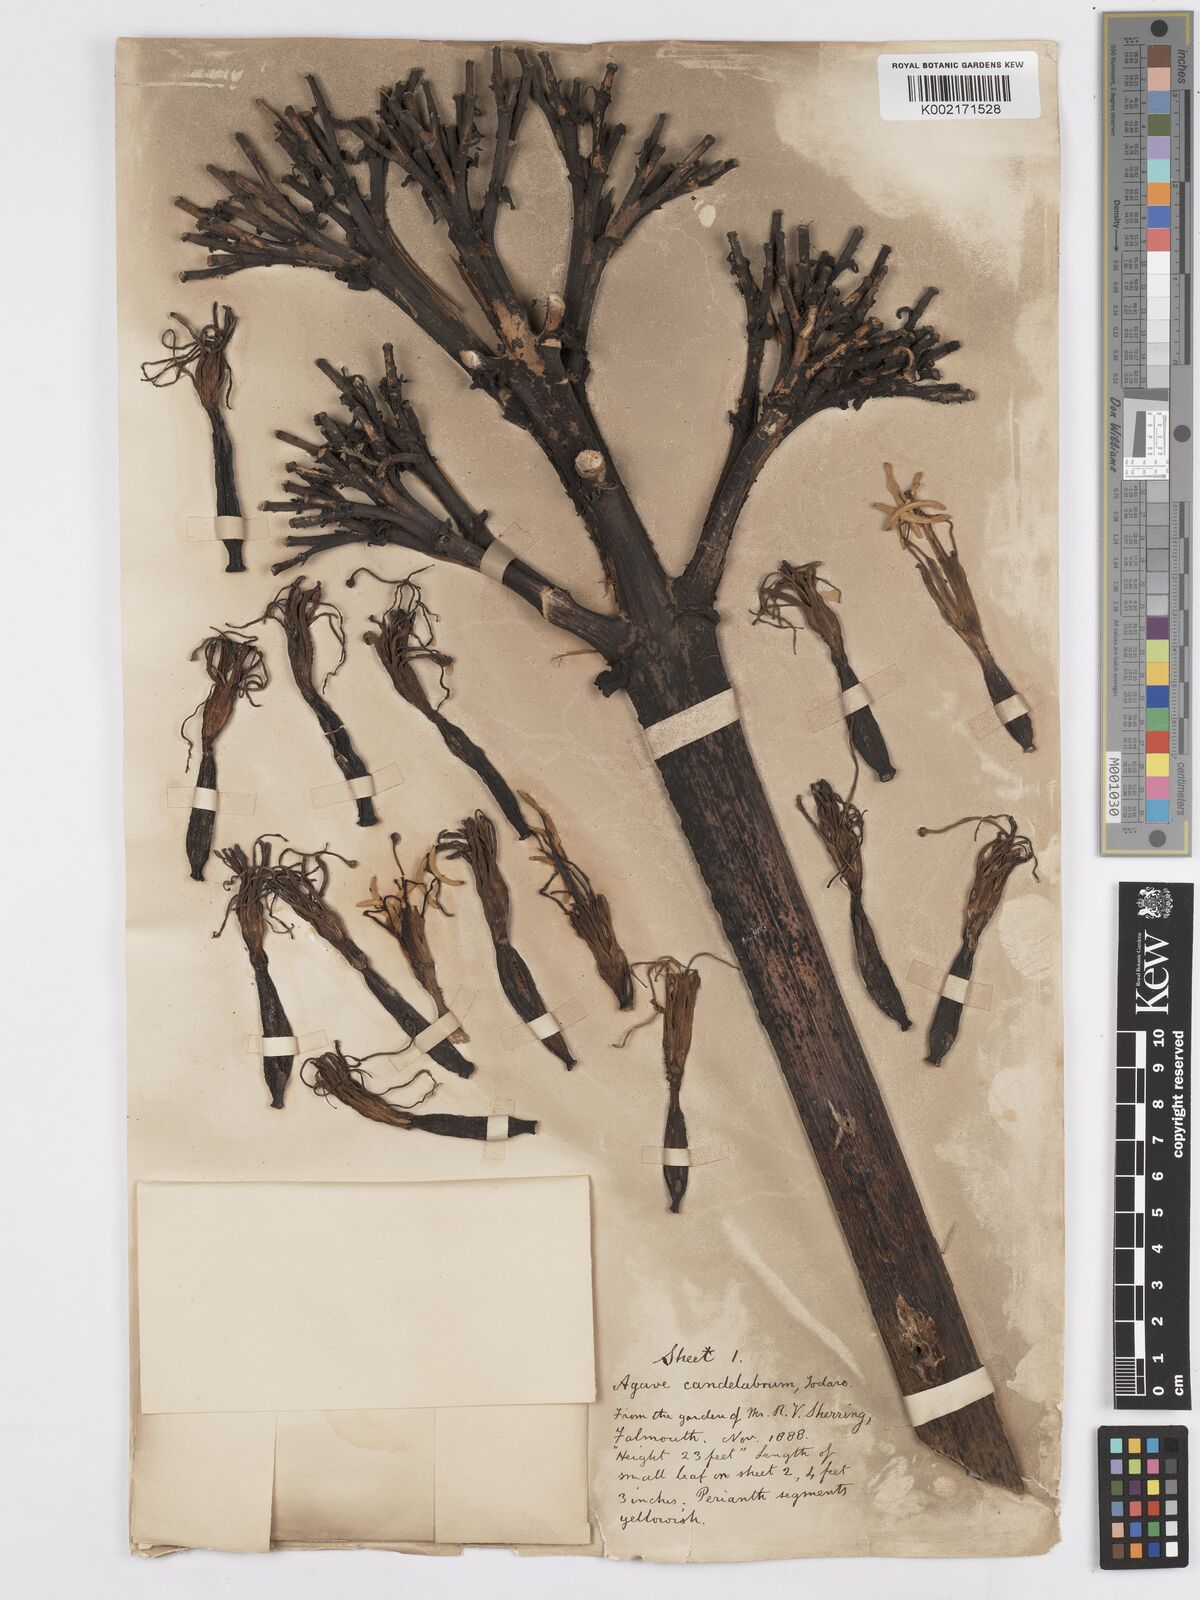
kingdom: Plantae
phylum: Tracheophyta
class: Liliopsida
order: Asparagales
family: Asparagaceae
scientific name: Asparagaceae
